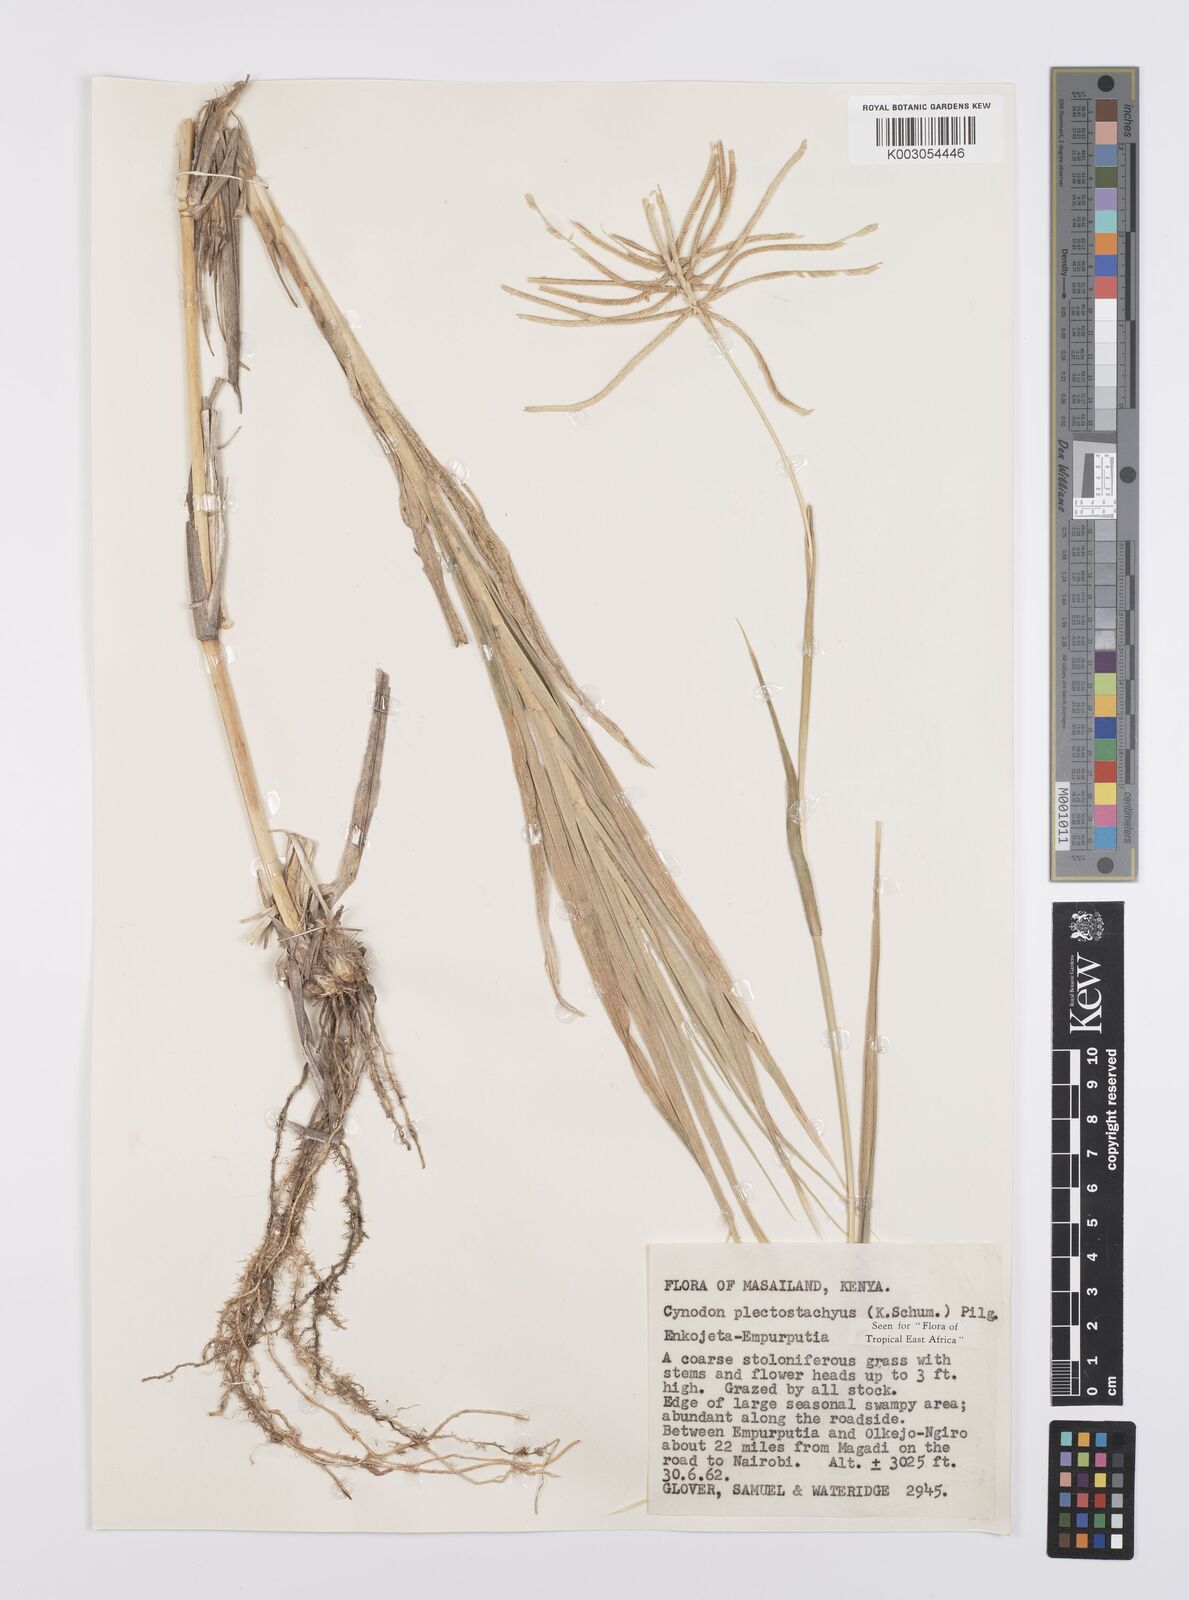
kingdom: Plantae
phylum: Tracheophyta
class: Liliopsida
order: Poales
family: Poaceae
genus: Cynodon
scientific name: Cynodon plectostachyus
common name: Stargrass
